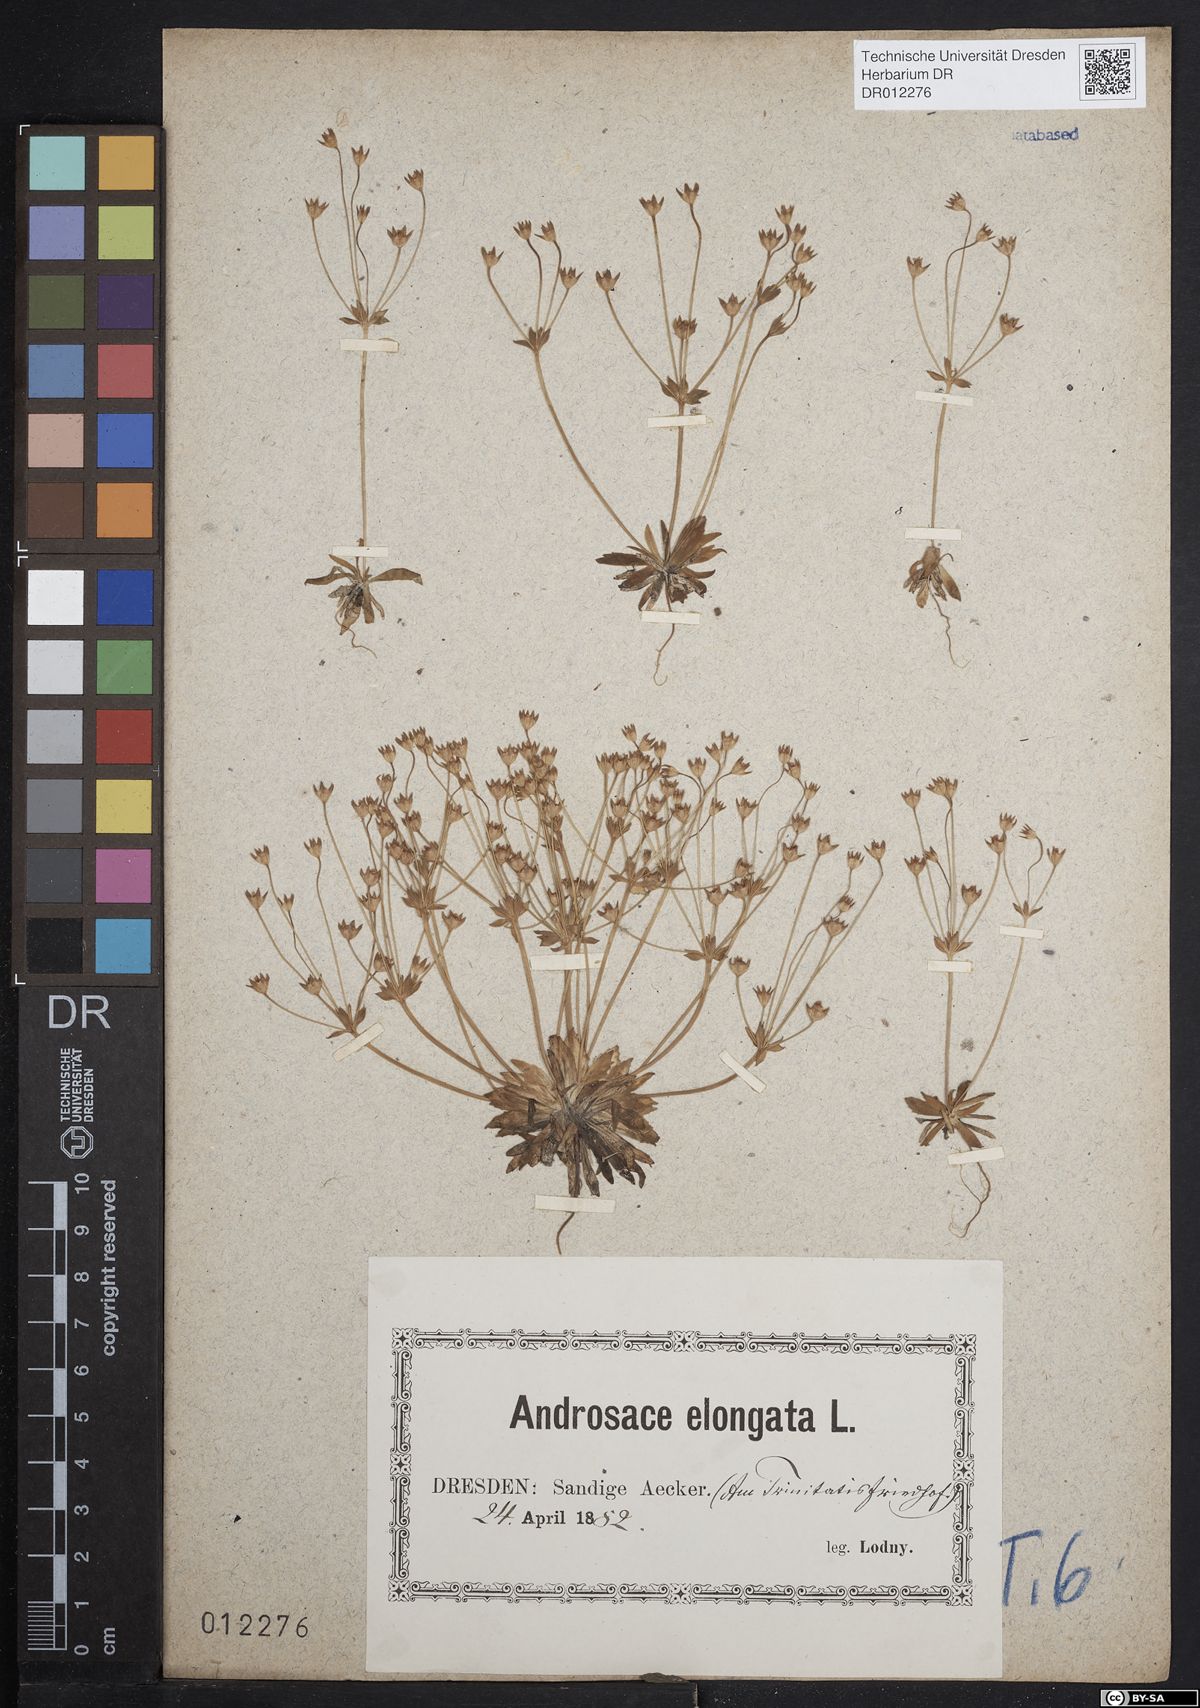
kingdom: Plantae
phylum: Tracheophyta
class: Magnoliopsida
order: Ericales
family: Primulaceae
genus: Androsace
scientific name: Androsace elongata
